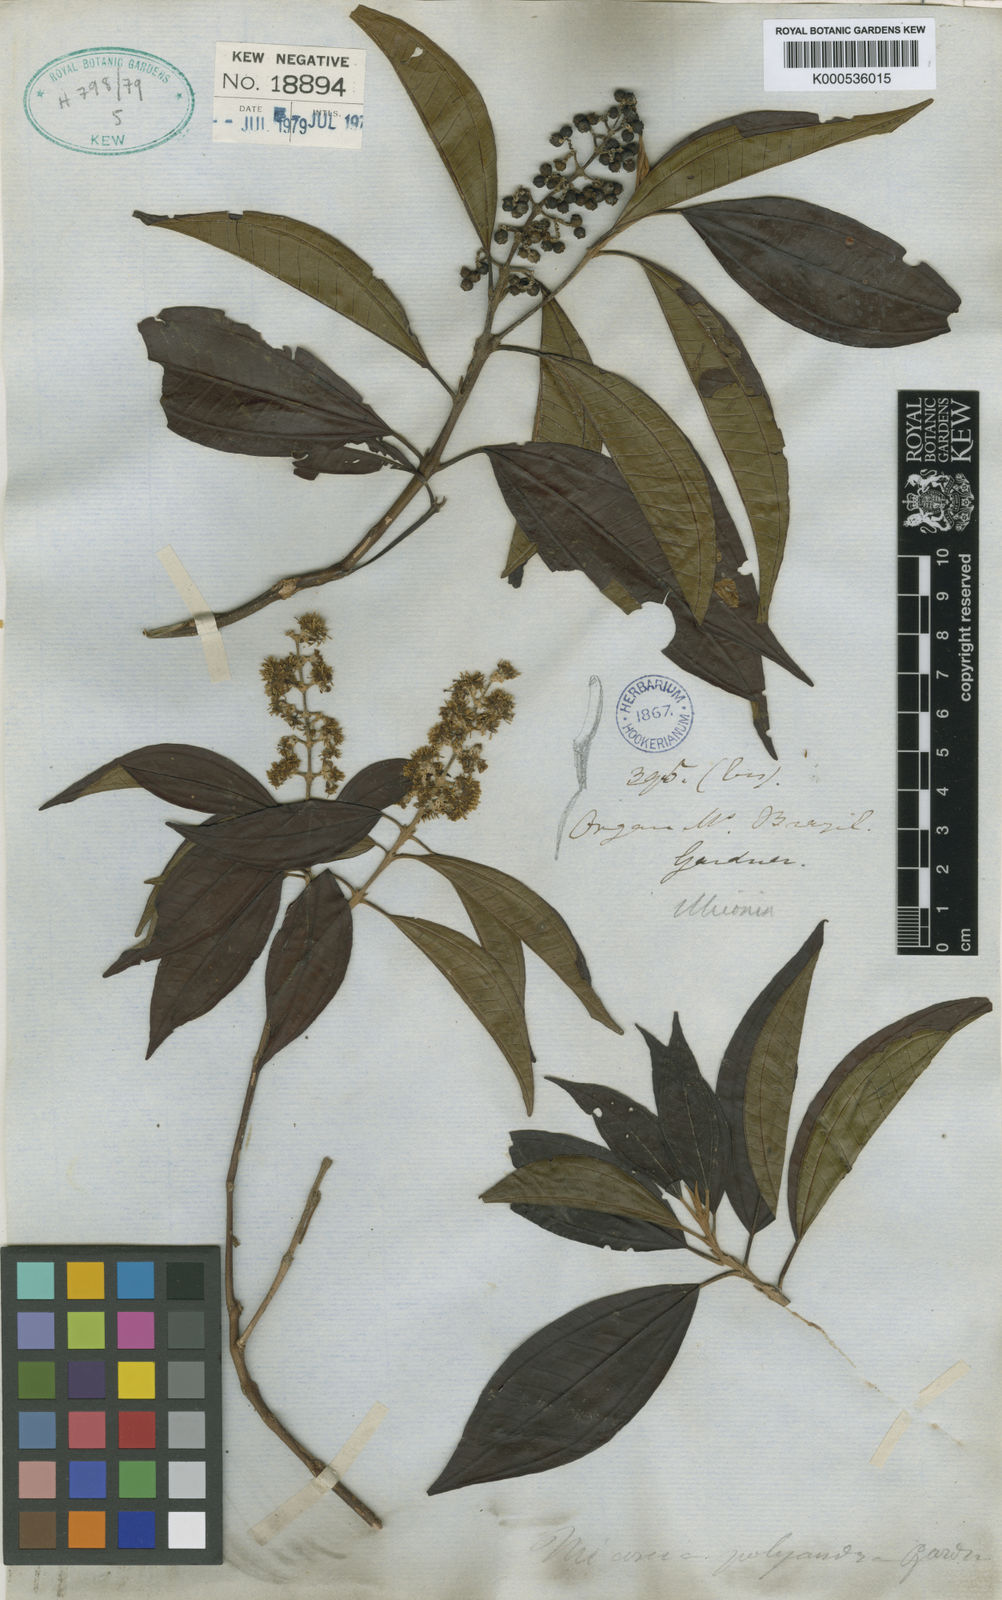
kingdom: Plantae
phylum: Tracheophyta
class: Magnoliopsida
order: Myrtales
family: Melastomataceae
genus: Miconia
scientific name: Miconia polyandra
